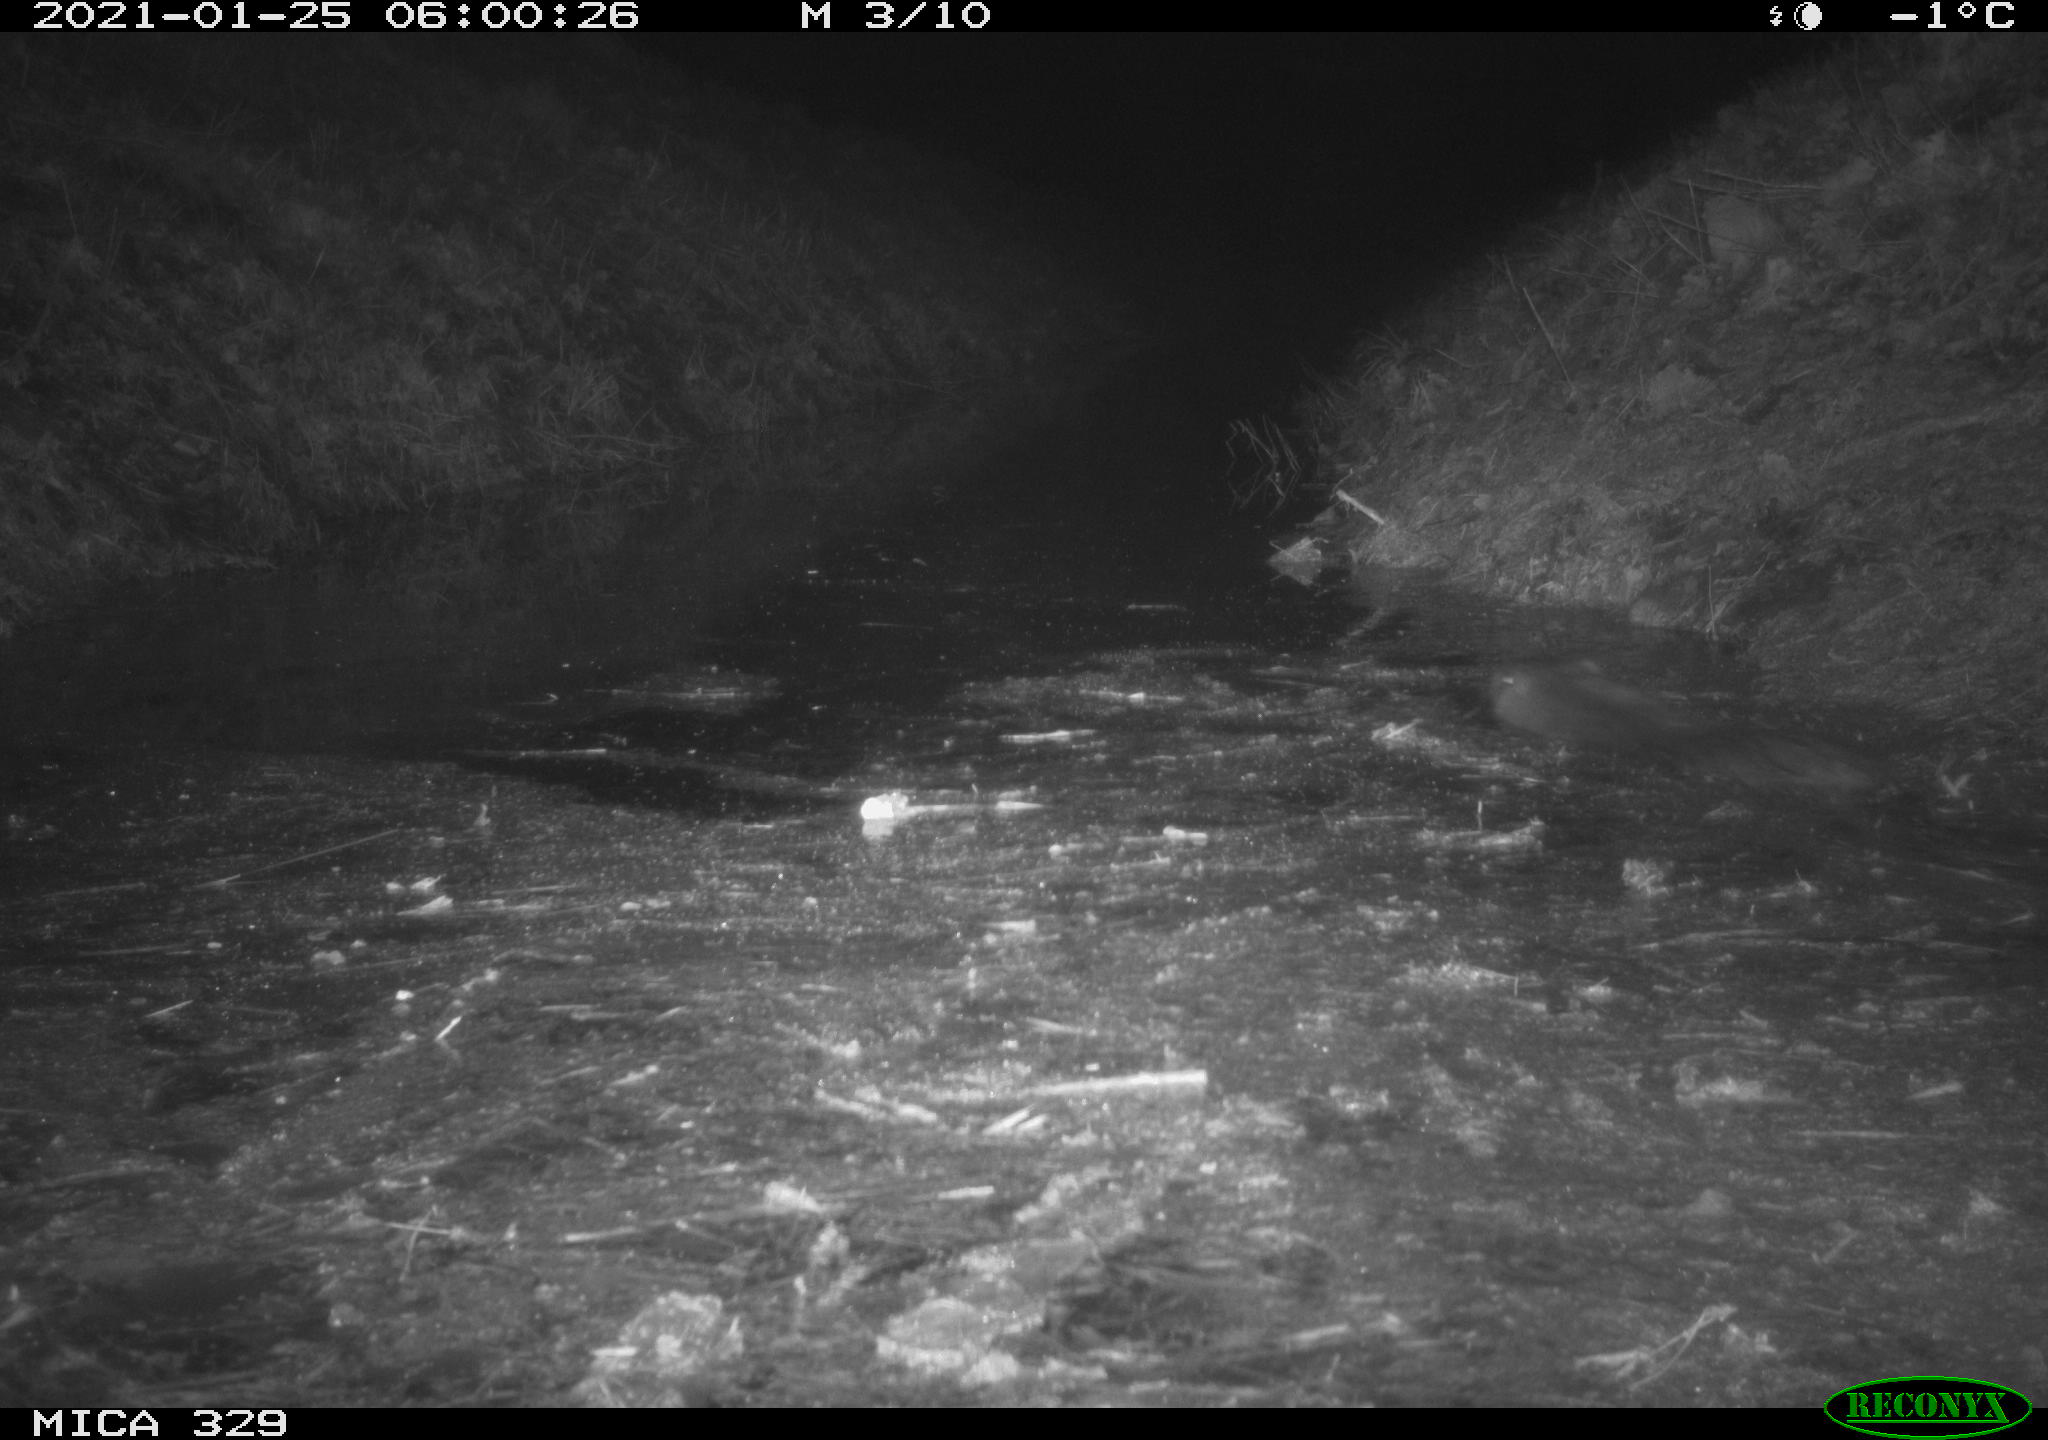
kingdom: Animalia
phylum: Chordata
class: Mammalia
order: Rodentia
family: Myocastoridae
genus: Myocastor
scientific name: Myocastor coypus
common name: Coypu
